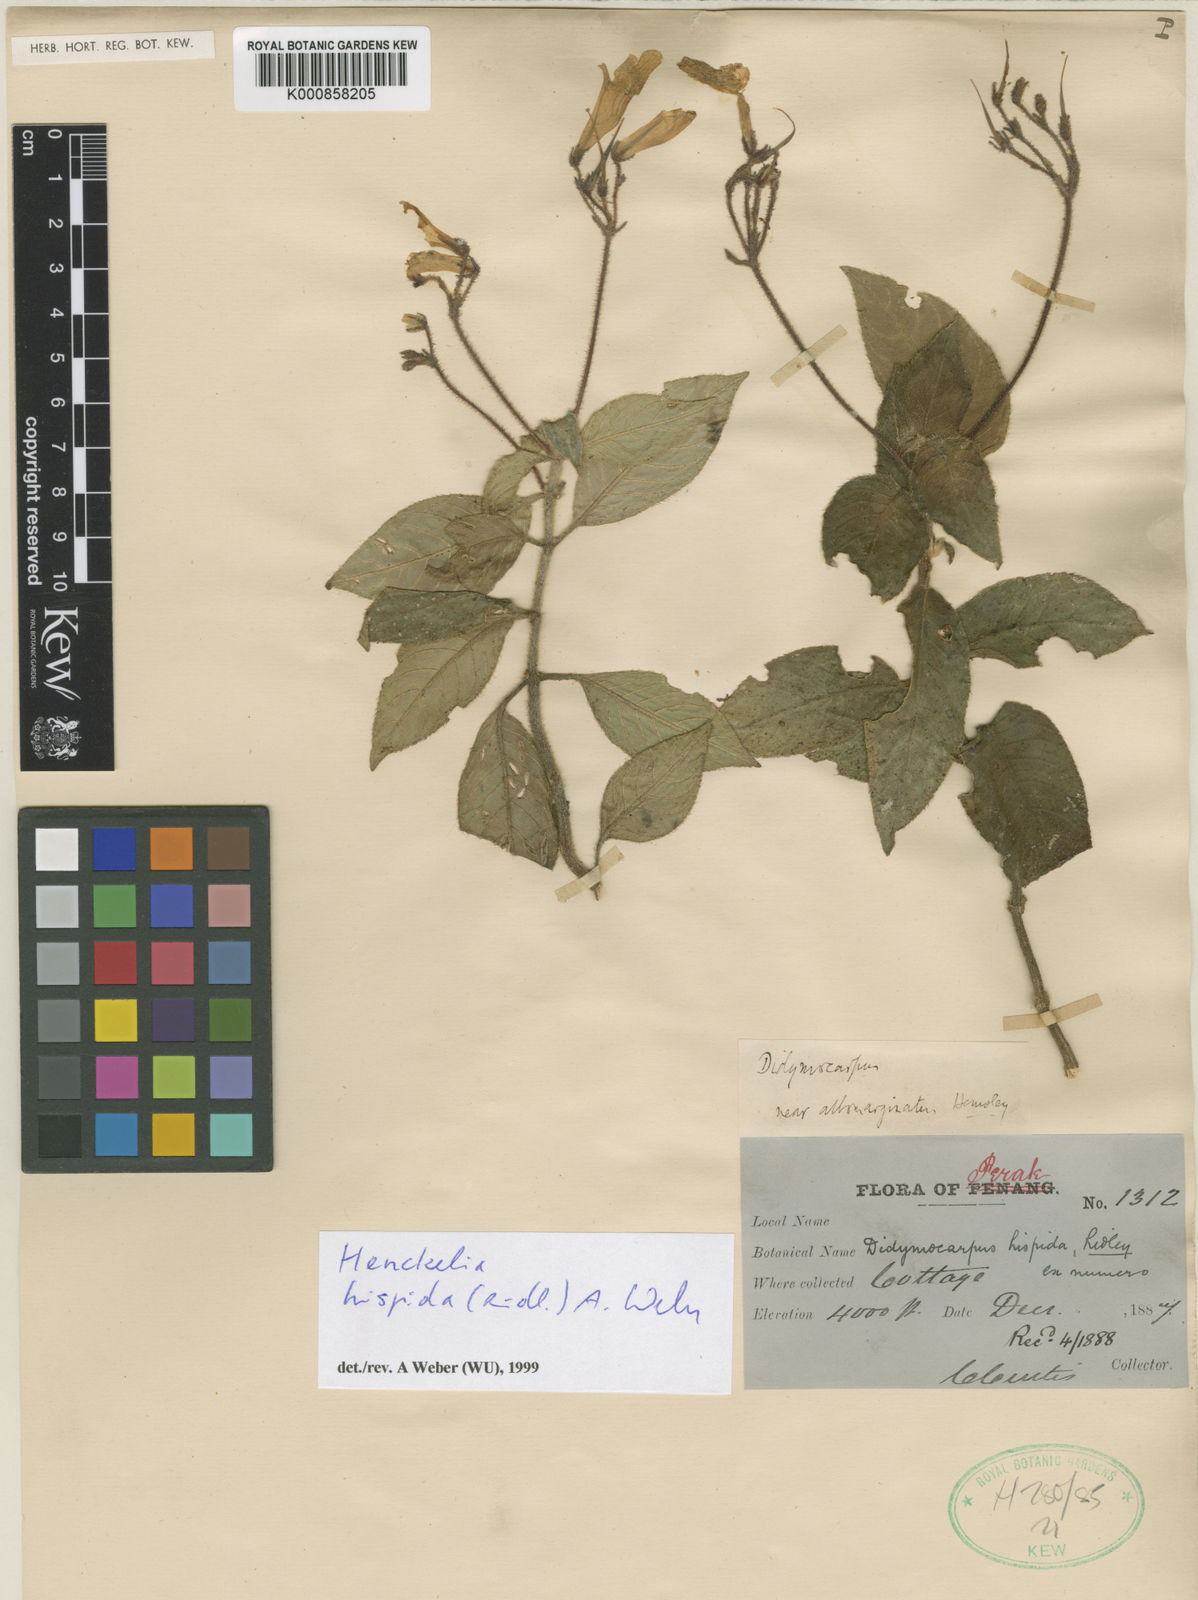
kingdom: Plantae
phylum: Tracheophyta
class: Magnoliopsida
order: Lamiales
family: Gesneriaceae
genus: Codonoboea
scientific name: Codonoboea hispida
